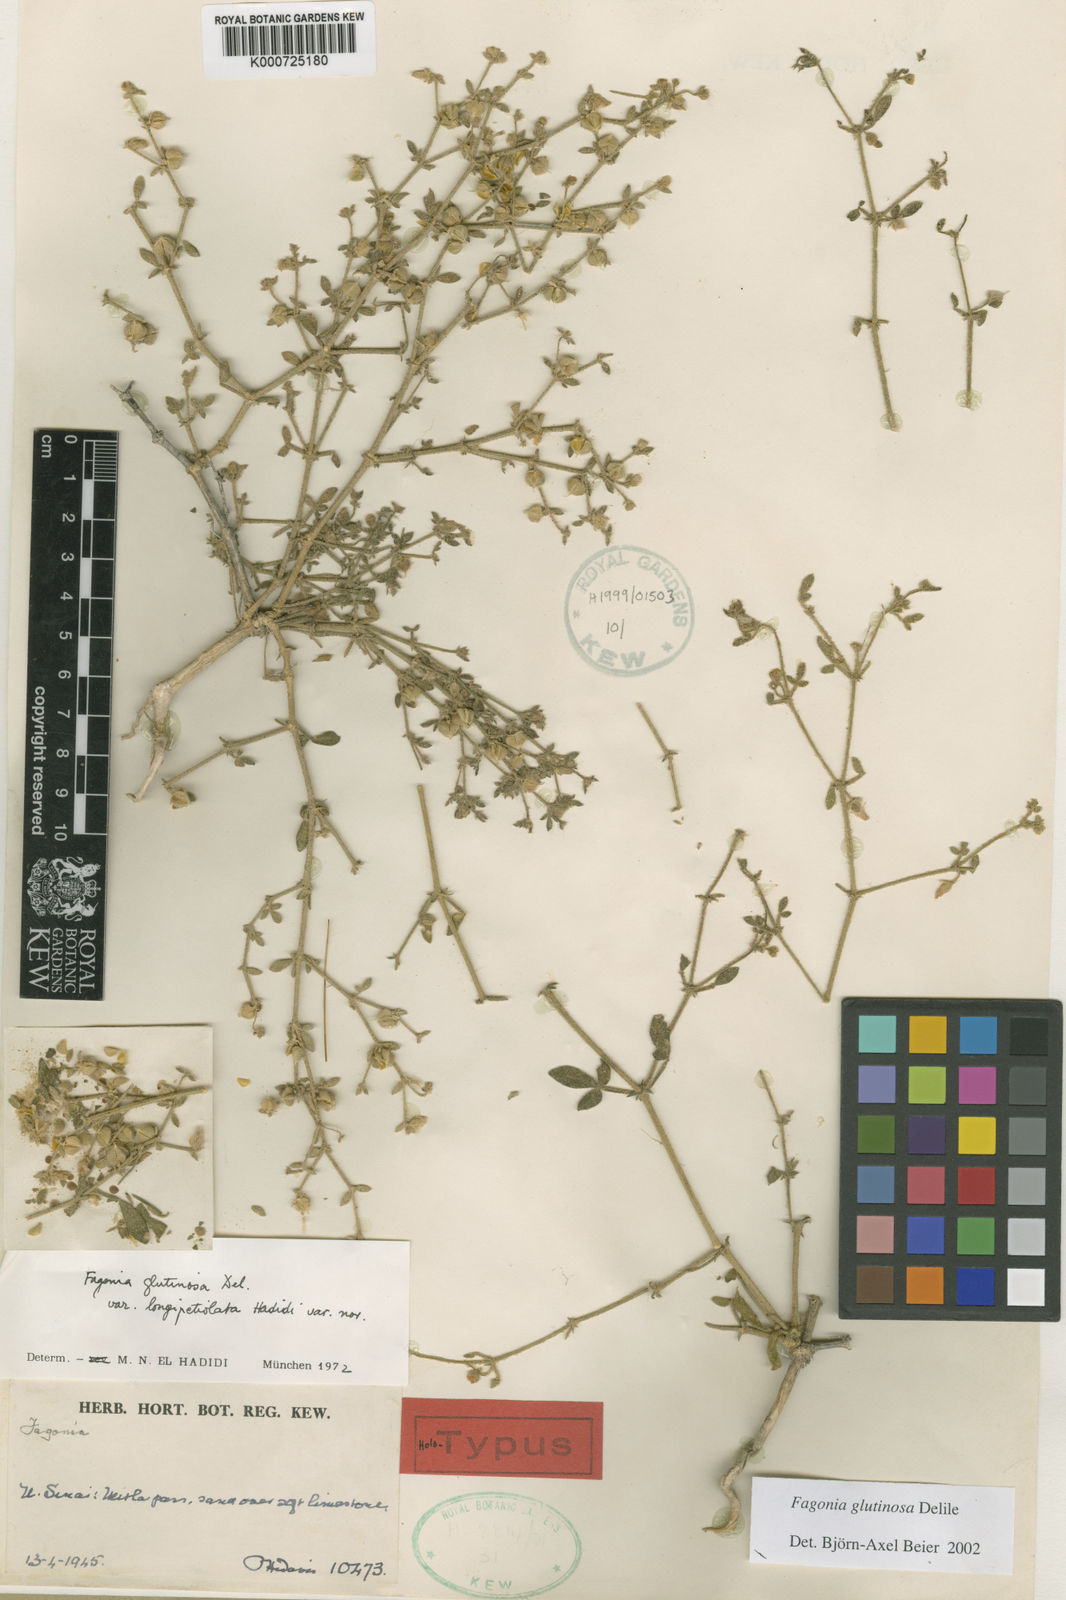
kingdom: Plantae
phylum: Tracheophyta
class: Magnoliopsida
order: Zygophyllales
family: Zygophyllaceae
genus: Fagonia
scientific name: Fagonia glutinosa
